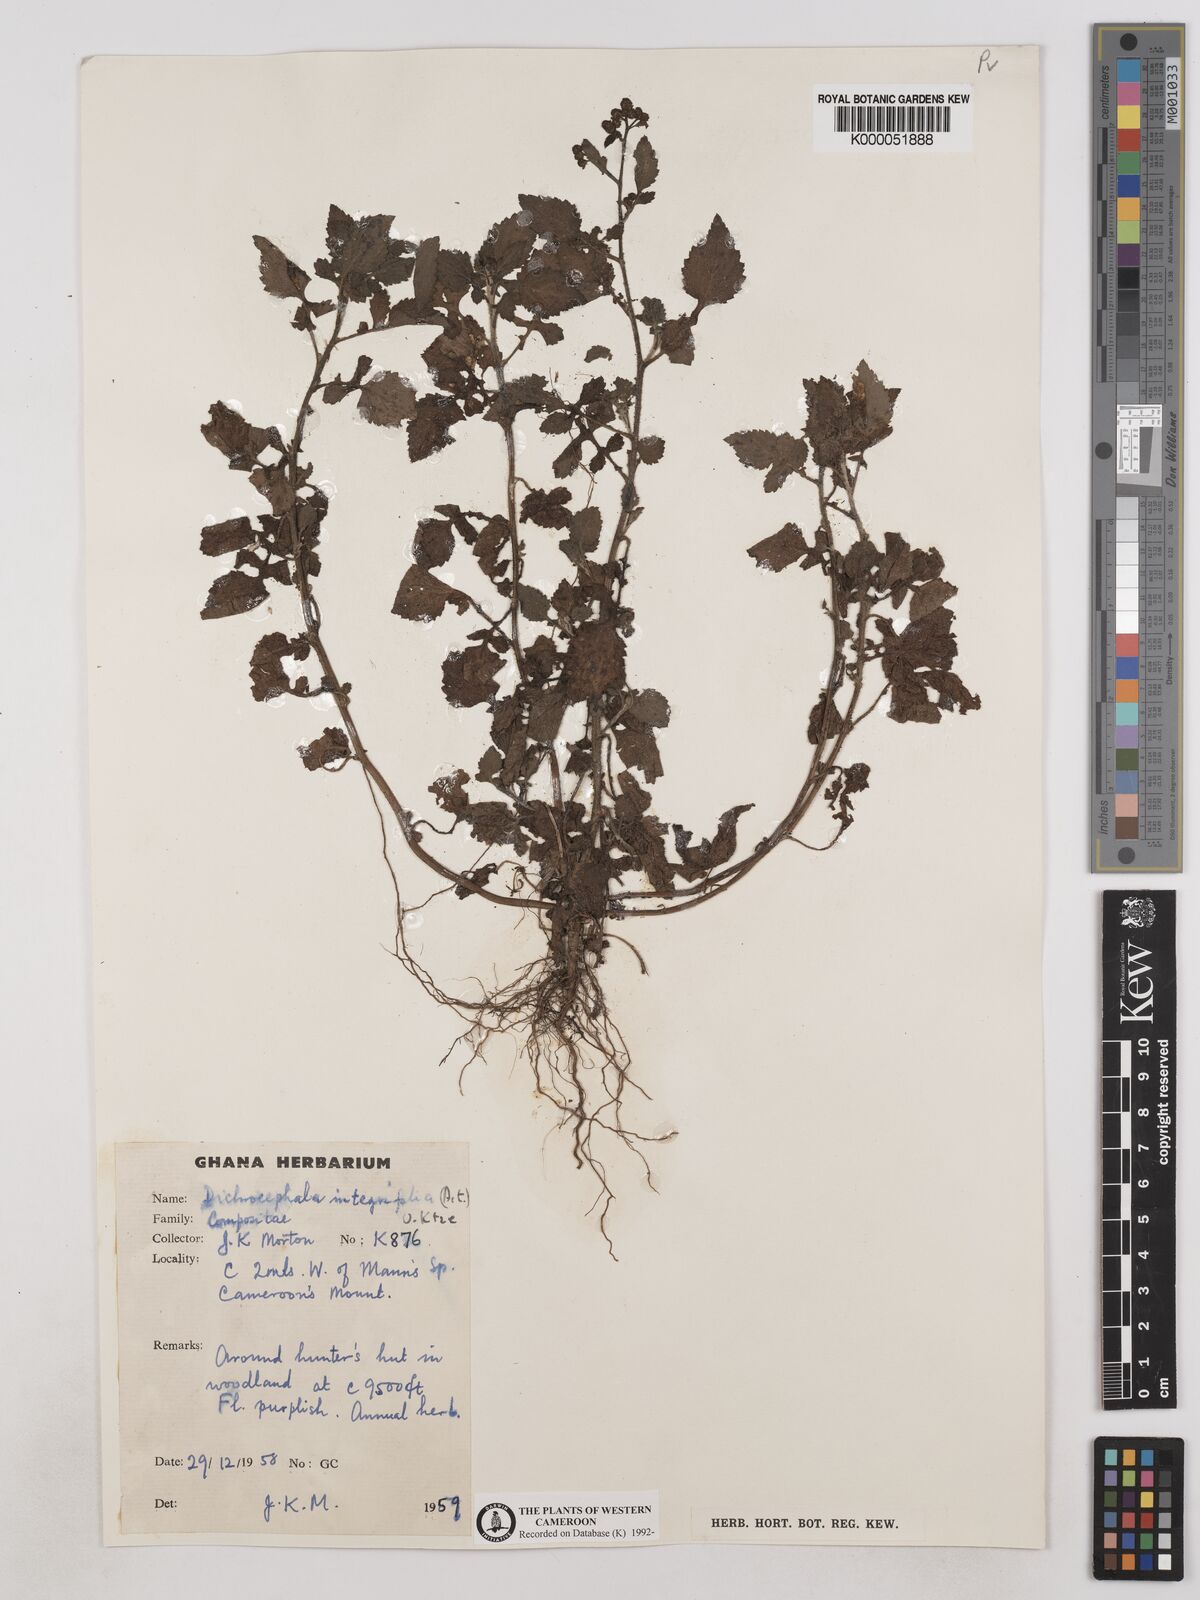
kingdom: Plantae
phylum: Tracheophyta
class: Magnoliopsida
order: Asterales
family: Asteraceae
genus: Dichrocephala
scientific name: Dichrocephala integrifolia
